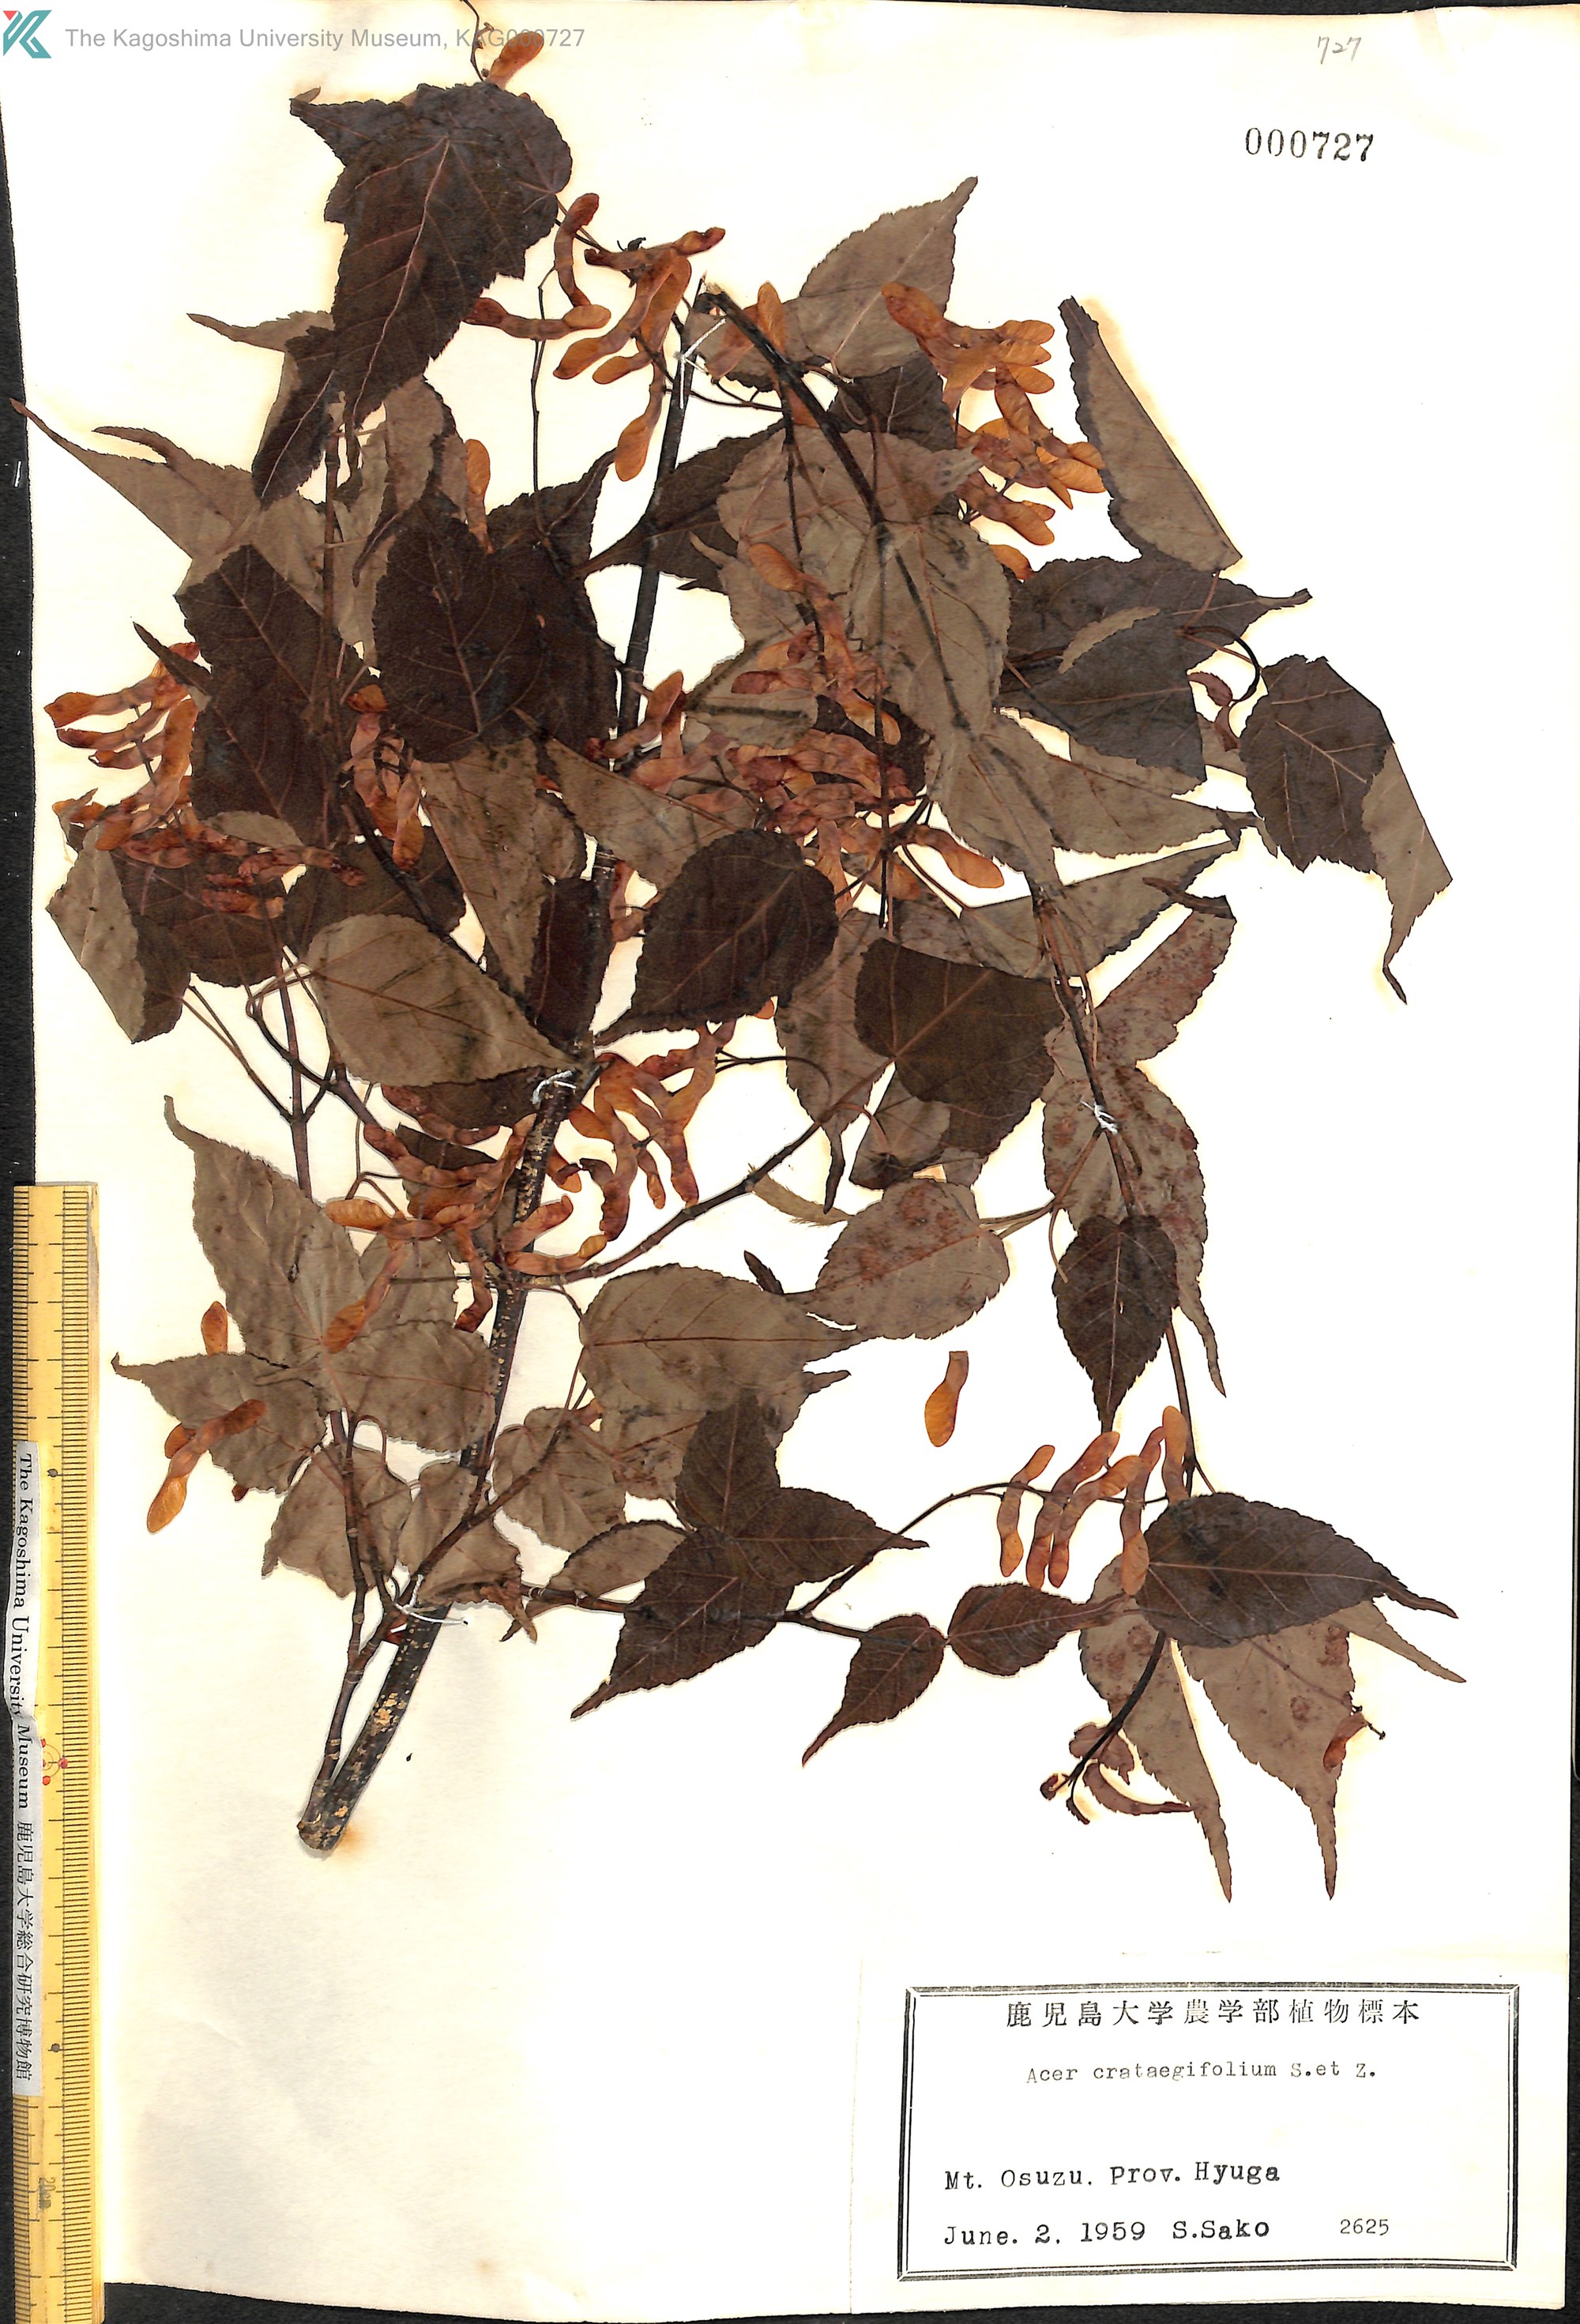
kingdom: Plantae
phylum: Tracheophyta
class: Magnoliopsida
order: Sapindales
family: Sapindaceae
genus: Acer
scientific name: Acer crataegifolium
